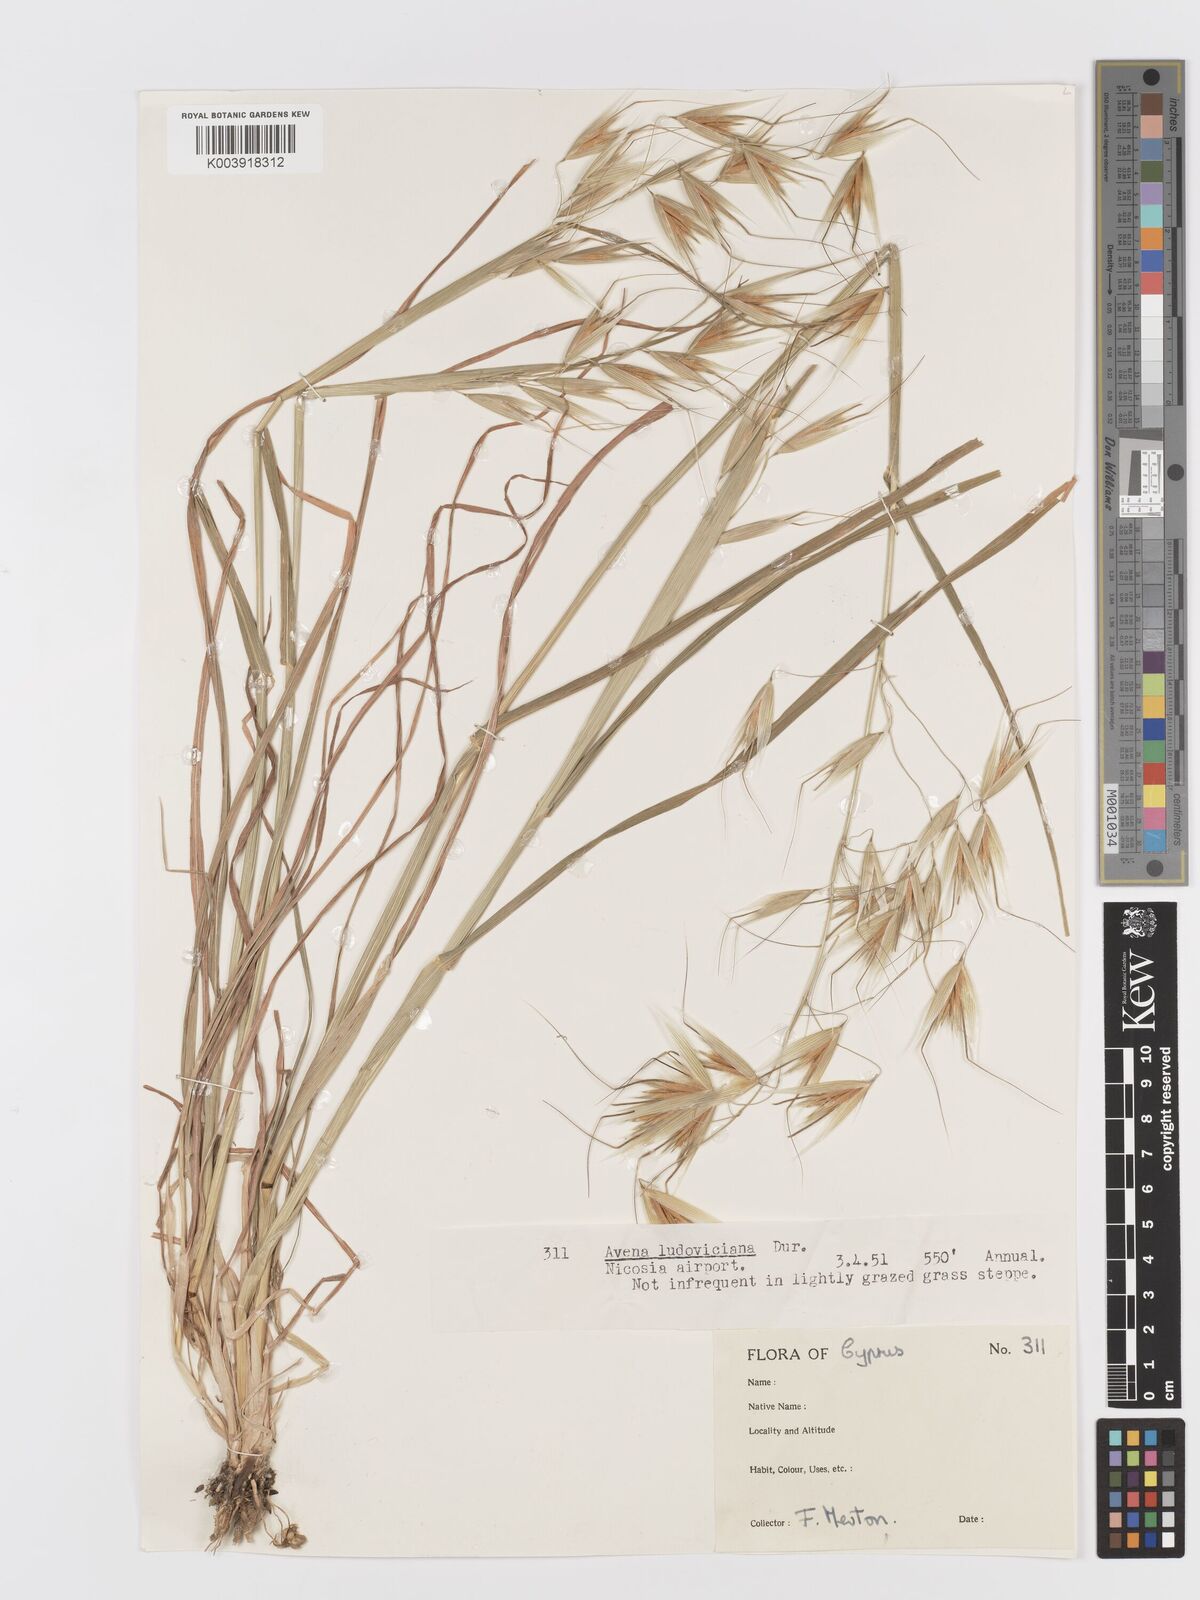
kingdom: Plantae
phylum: Tracheophyta
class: Liliopsida
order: Poales
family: Poaceae
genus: Avena
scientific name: Avena sterilis
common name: Animated oat
